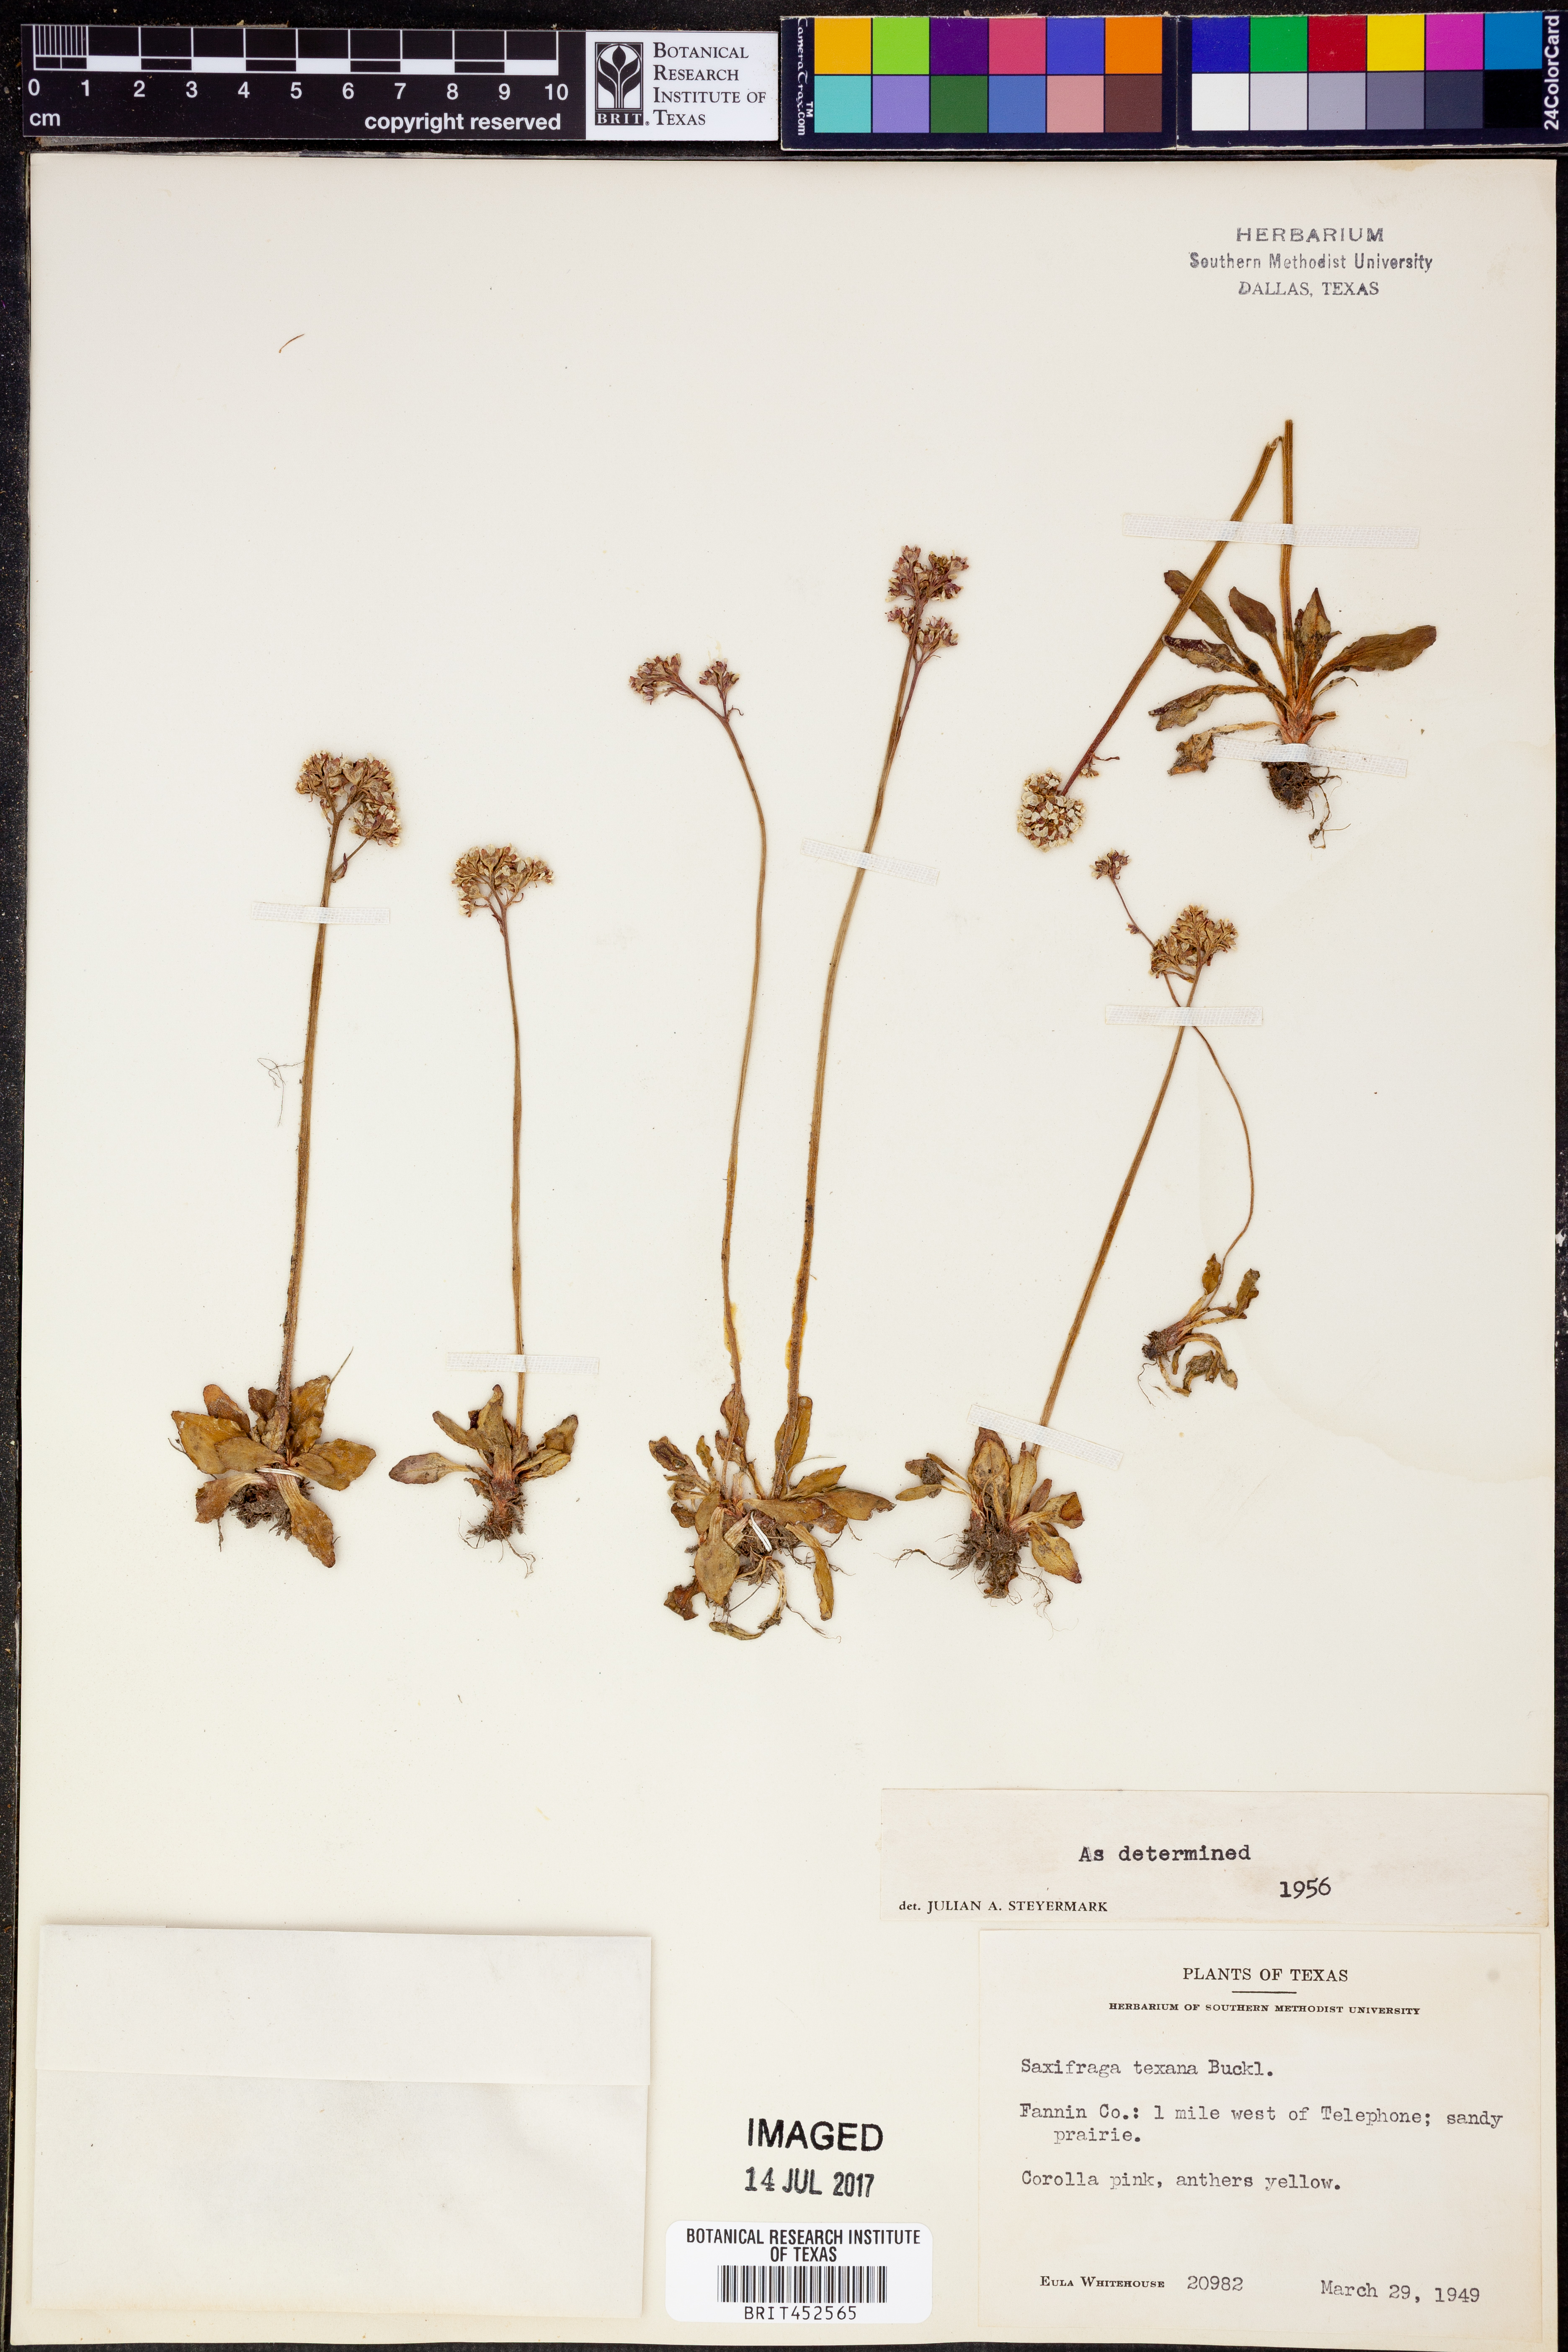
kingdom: Plantae
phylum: Tracheophyta
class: Magnoliopsida
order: Saxifragales
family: Saxifragaceae
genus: Micranthes
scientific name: Micranthes texana
